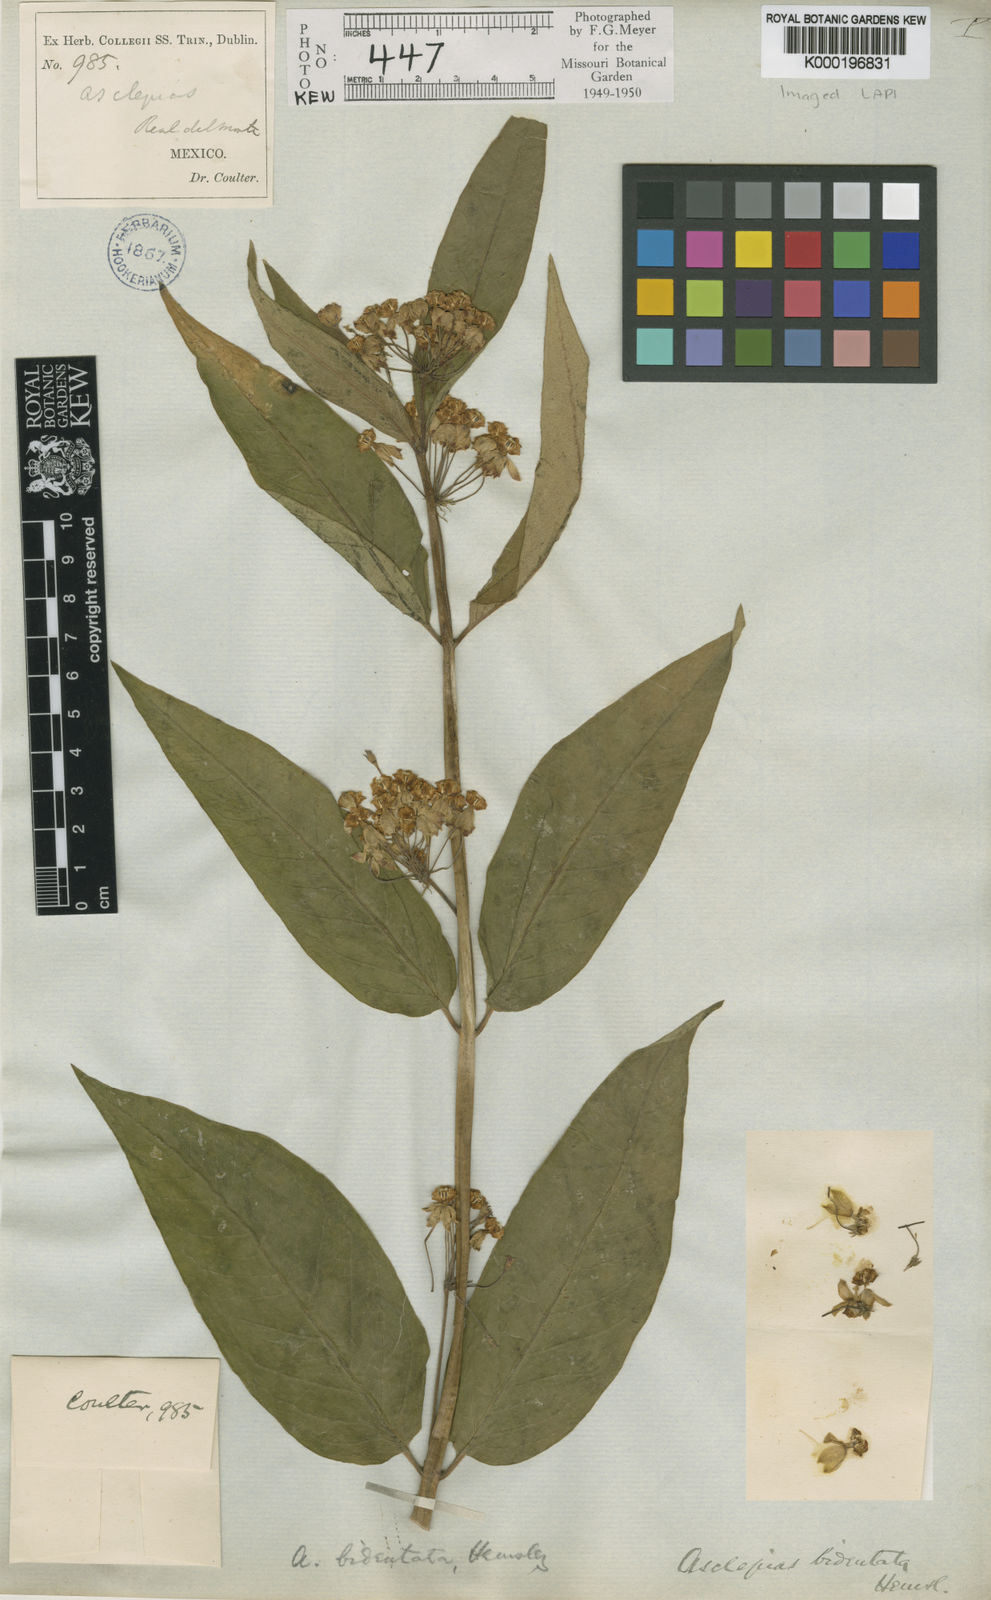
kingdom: Plantae
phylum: Tracheophyta
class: Magnoliopsida
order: Gentianales
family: Apocynaceae
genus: Asclepias
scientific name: Asclepias similis
